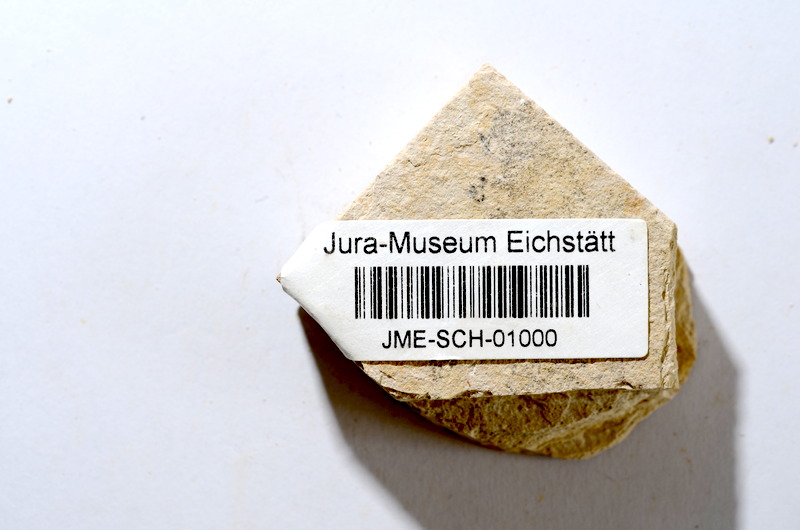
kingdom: Animalia
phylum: Chordata
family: Ascalaboidae
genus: Tharsis
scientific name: Tharsis dubius
